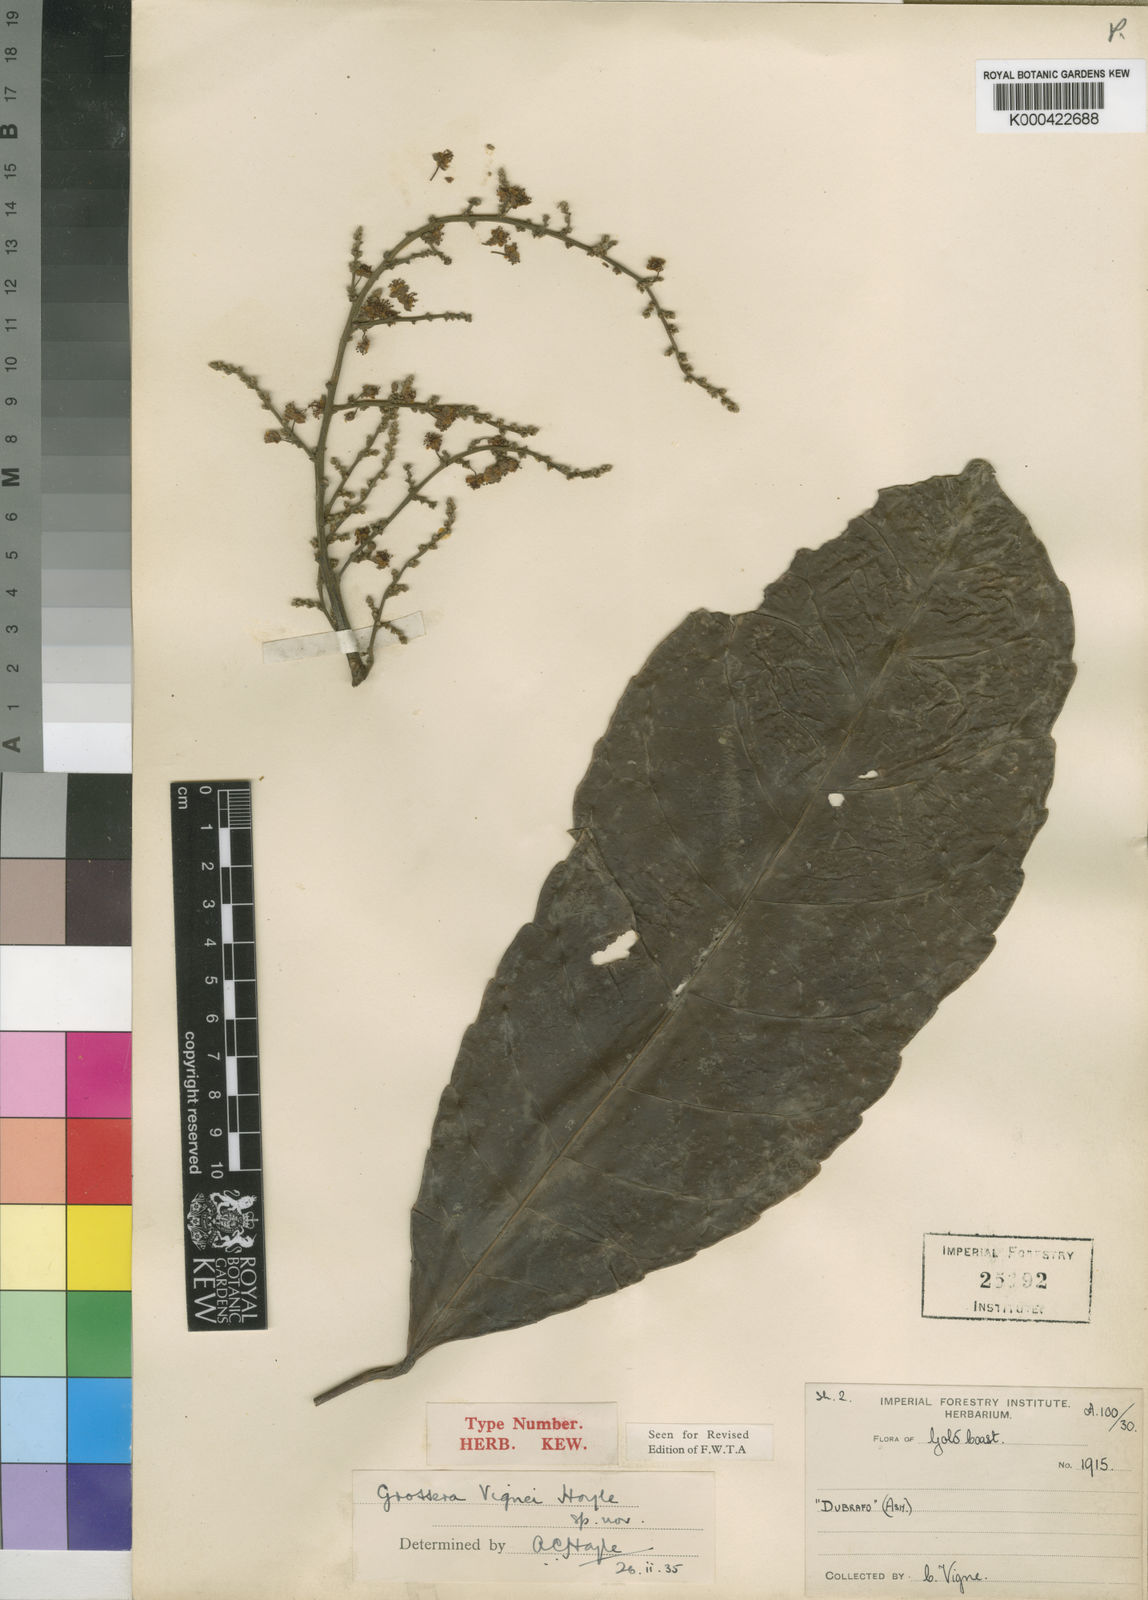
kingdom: Plantae
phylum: Tracheophyta
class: Magnoliopsida
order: Malpighiales
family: Euphorbiaceae
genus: Grossera
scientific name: Grossera vignei
